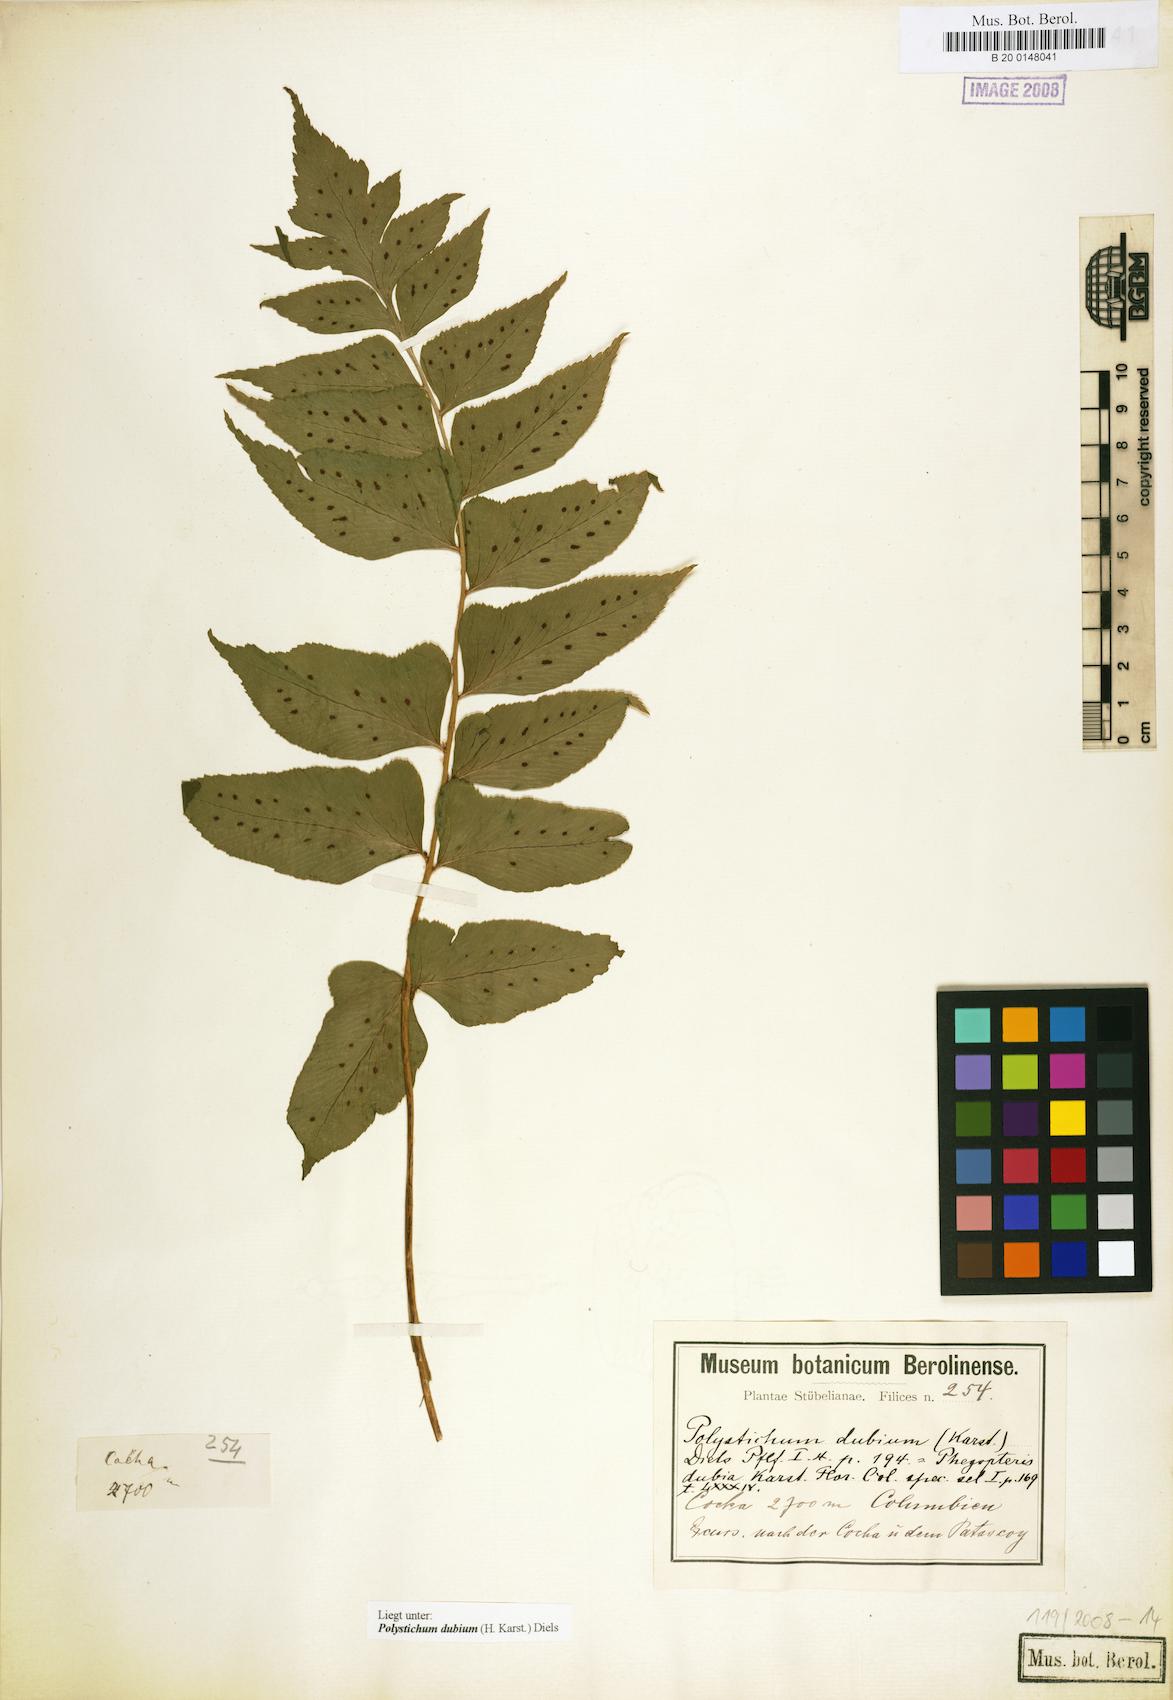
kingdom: Plantae
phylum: Tracheophyta
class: Polypodiopsida
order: Polypodiales
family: Dryopteridaceae
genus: Polystichum
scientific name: Polystichum dubium
